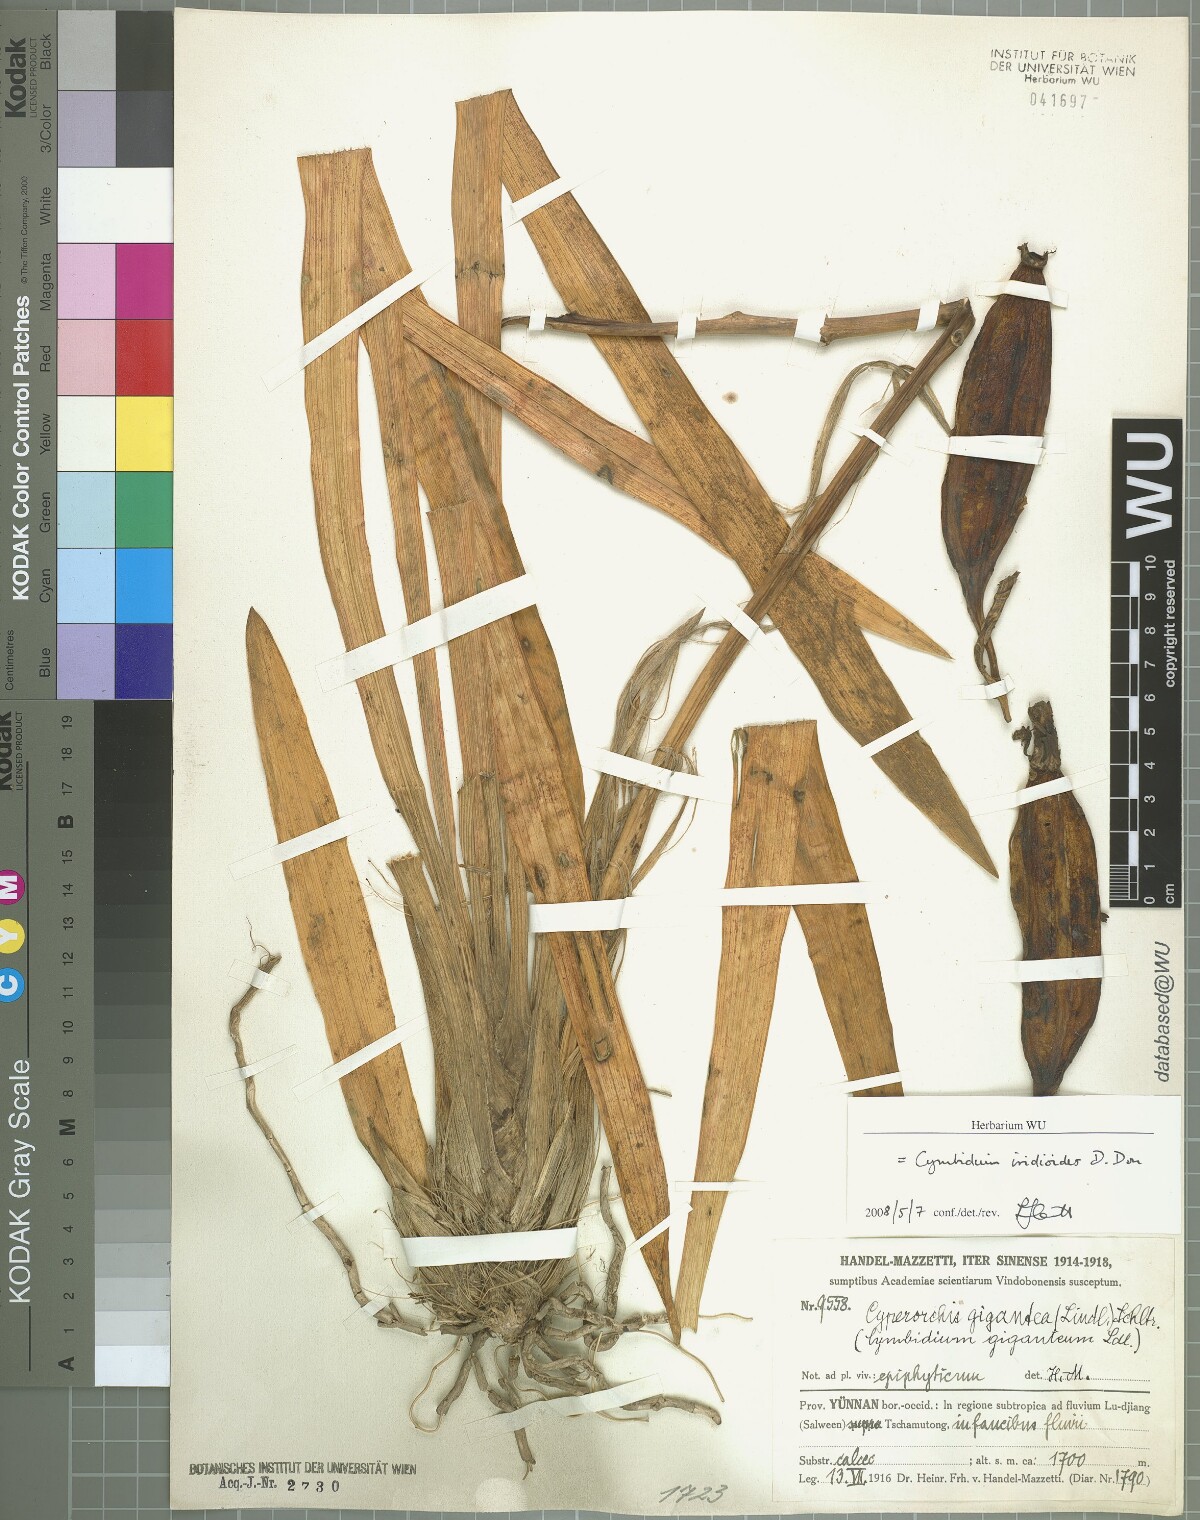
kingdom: Plantae
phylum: Tracheophyta
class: Liliopsida
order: Asparagales
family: Orchidaceae
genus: Cymbidium
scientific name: Cymbidium iridioides
